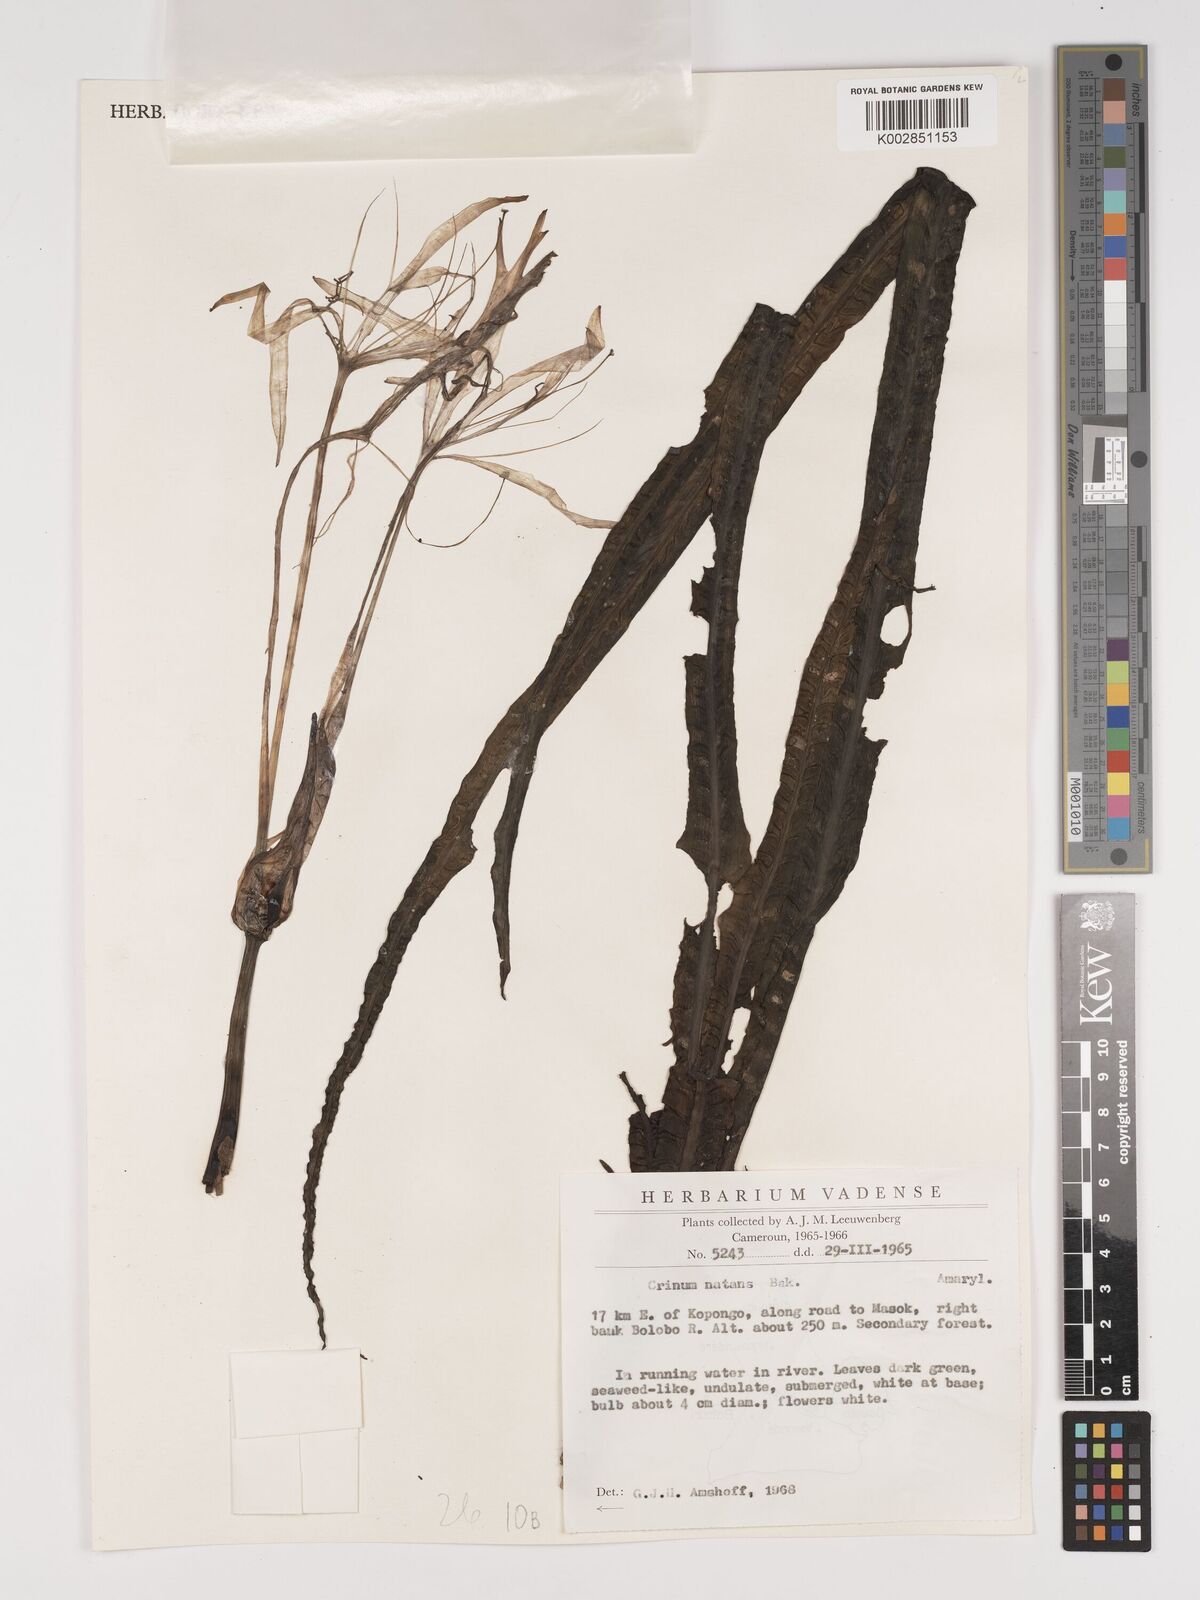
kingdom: Plantae
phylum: Tracheophyta
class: Liliopsida
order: Asparagales
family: Amaryllidaceae
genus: Crinum
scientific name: Crinum natans
